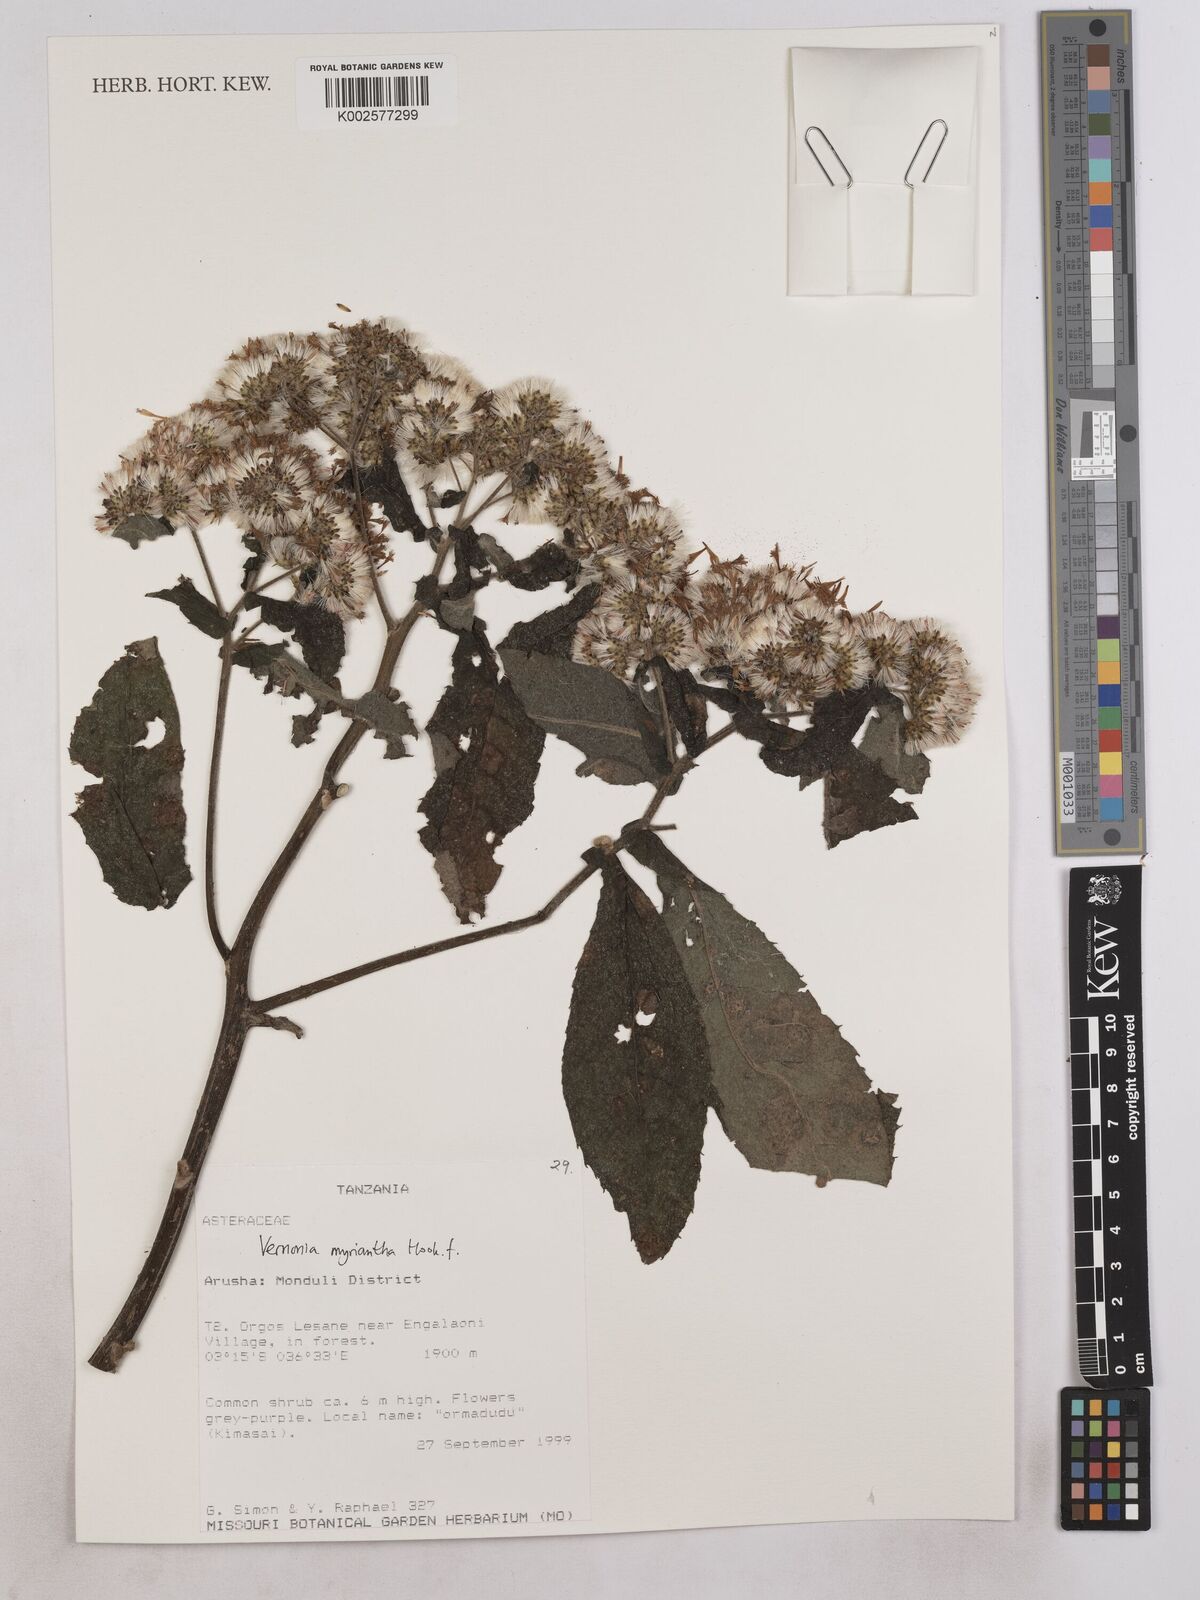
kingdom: Plantae
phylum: Tracheophyta
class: Magnoliopsida
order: Asterales
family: Asteraceae
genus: Gymnanthemum
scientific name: Gymnanthemum myrianthum
